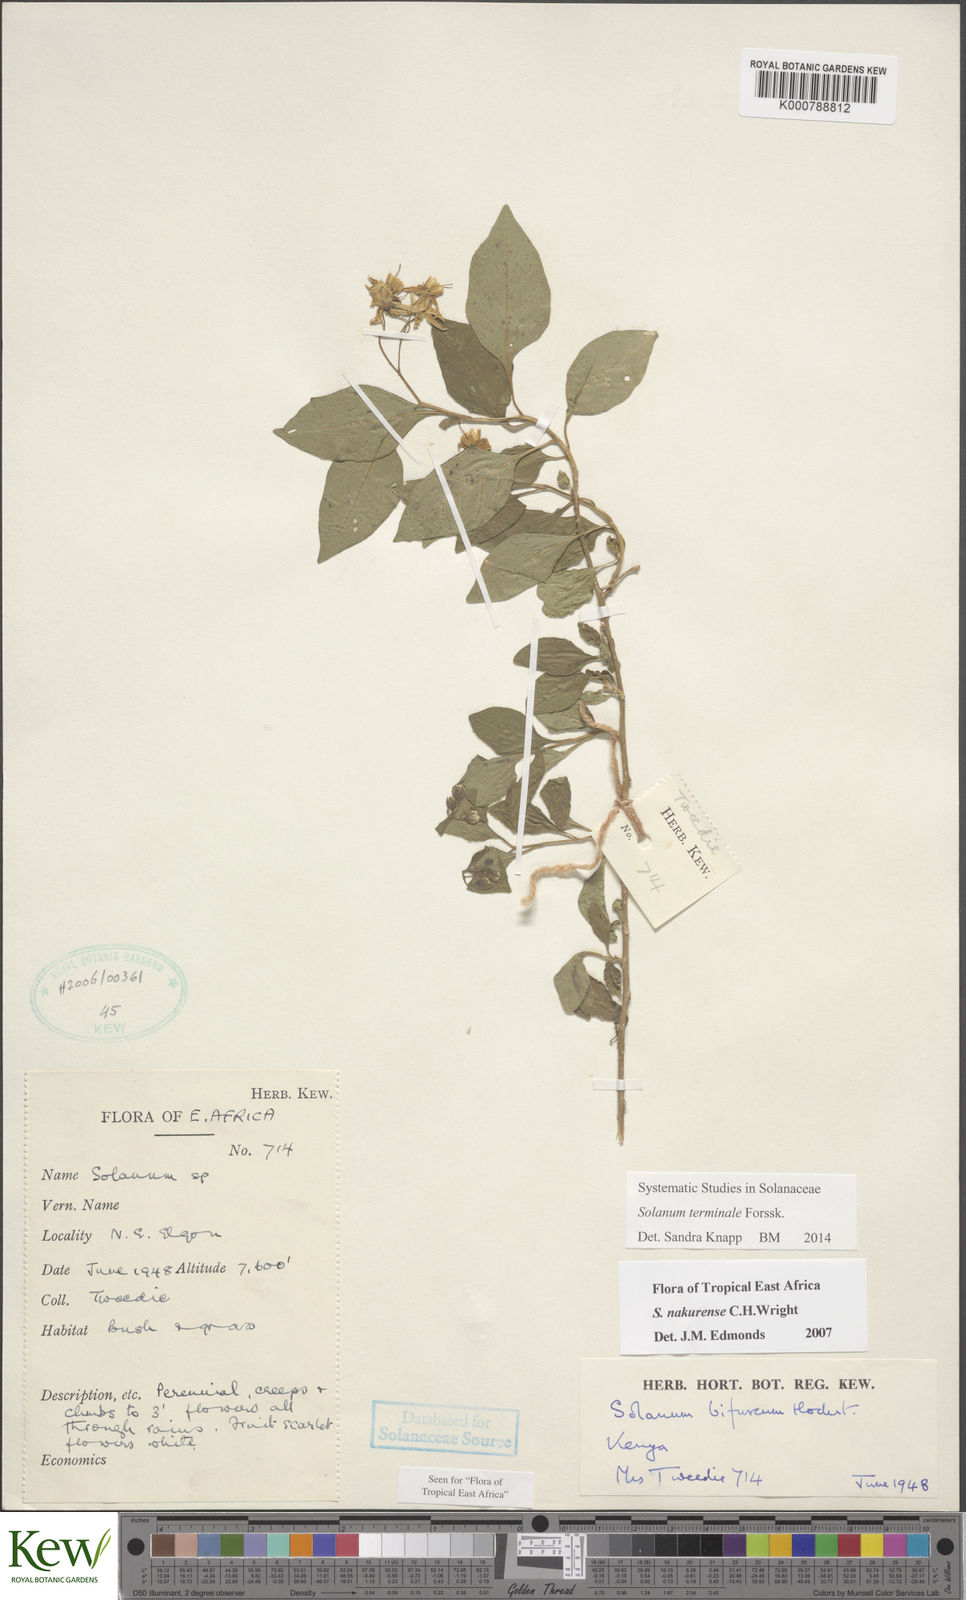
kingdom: Plantae
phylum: Tracheophyta
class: Magnoliopsida
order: Solanales
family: Solanaceae
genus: Solanum
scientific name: Solanum terminale
